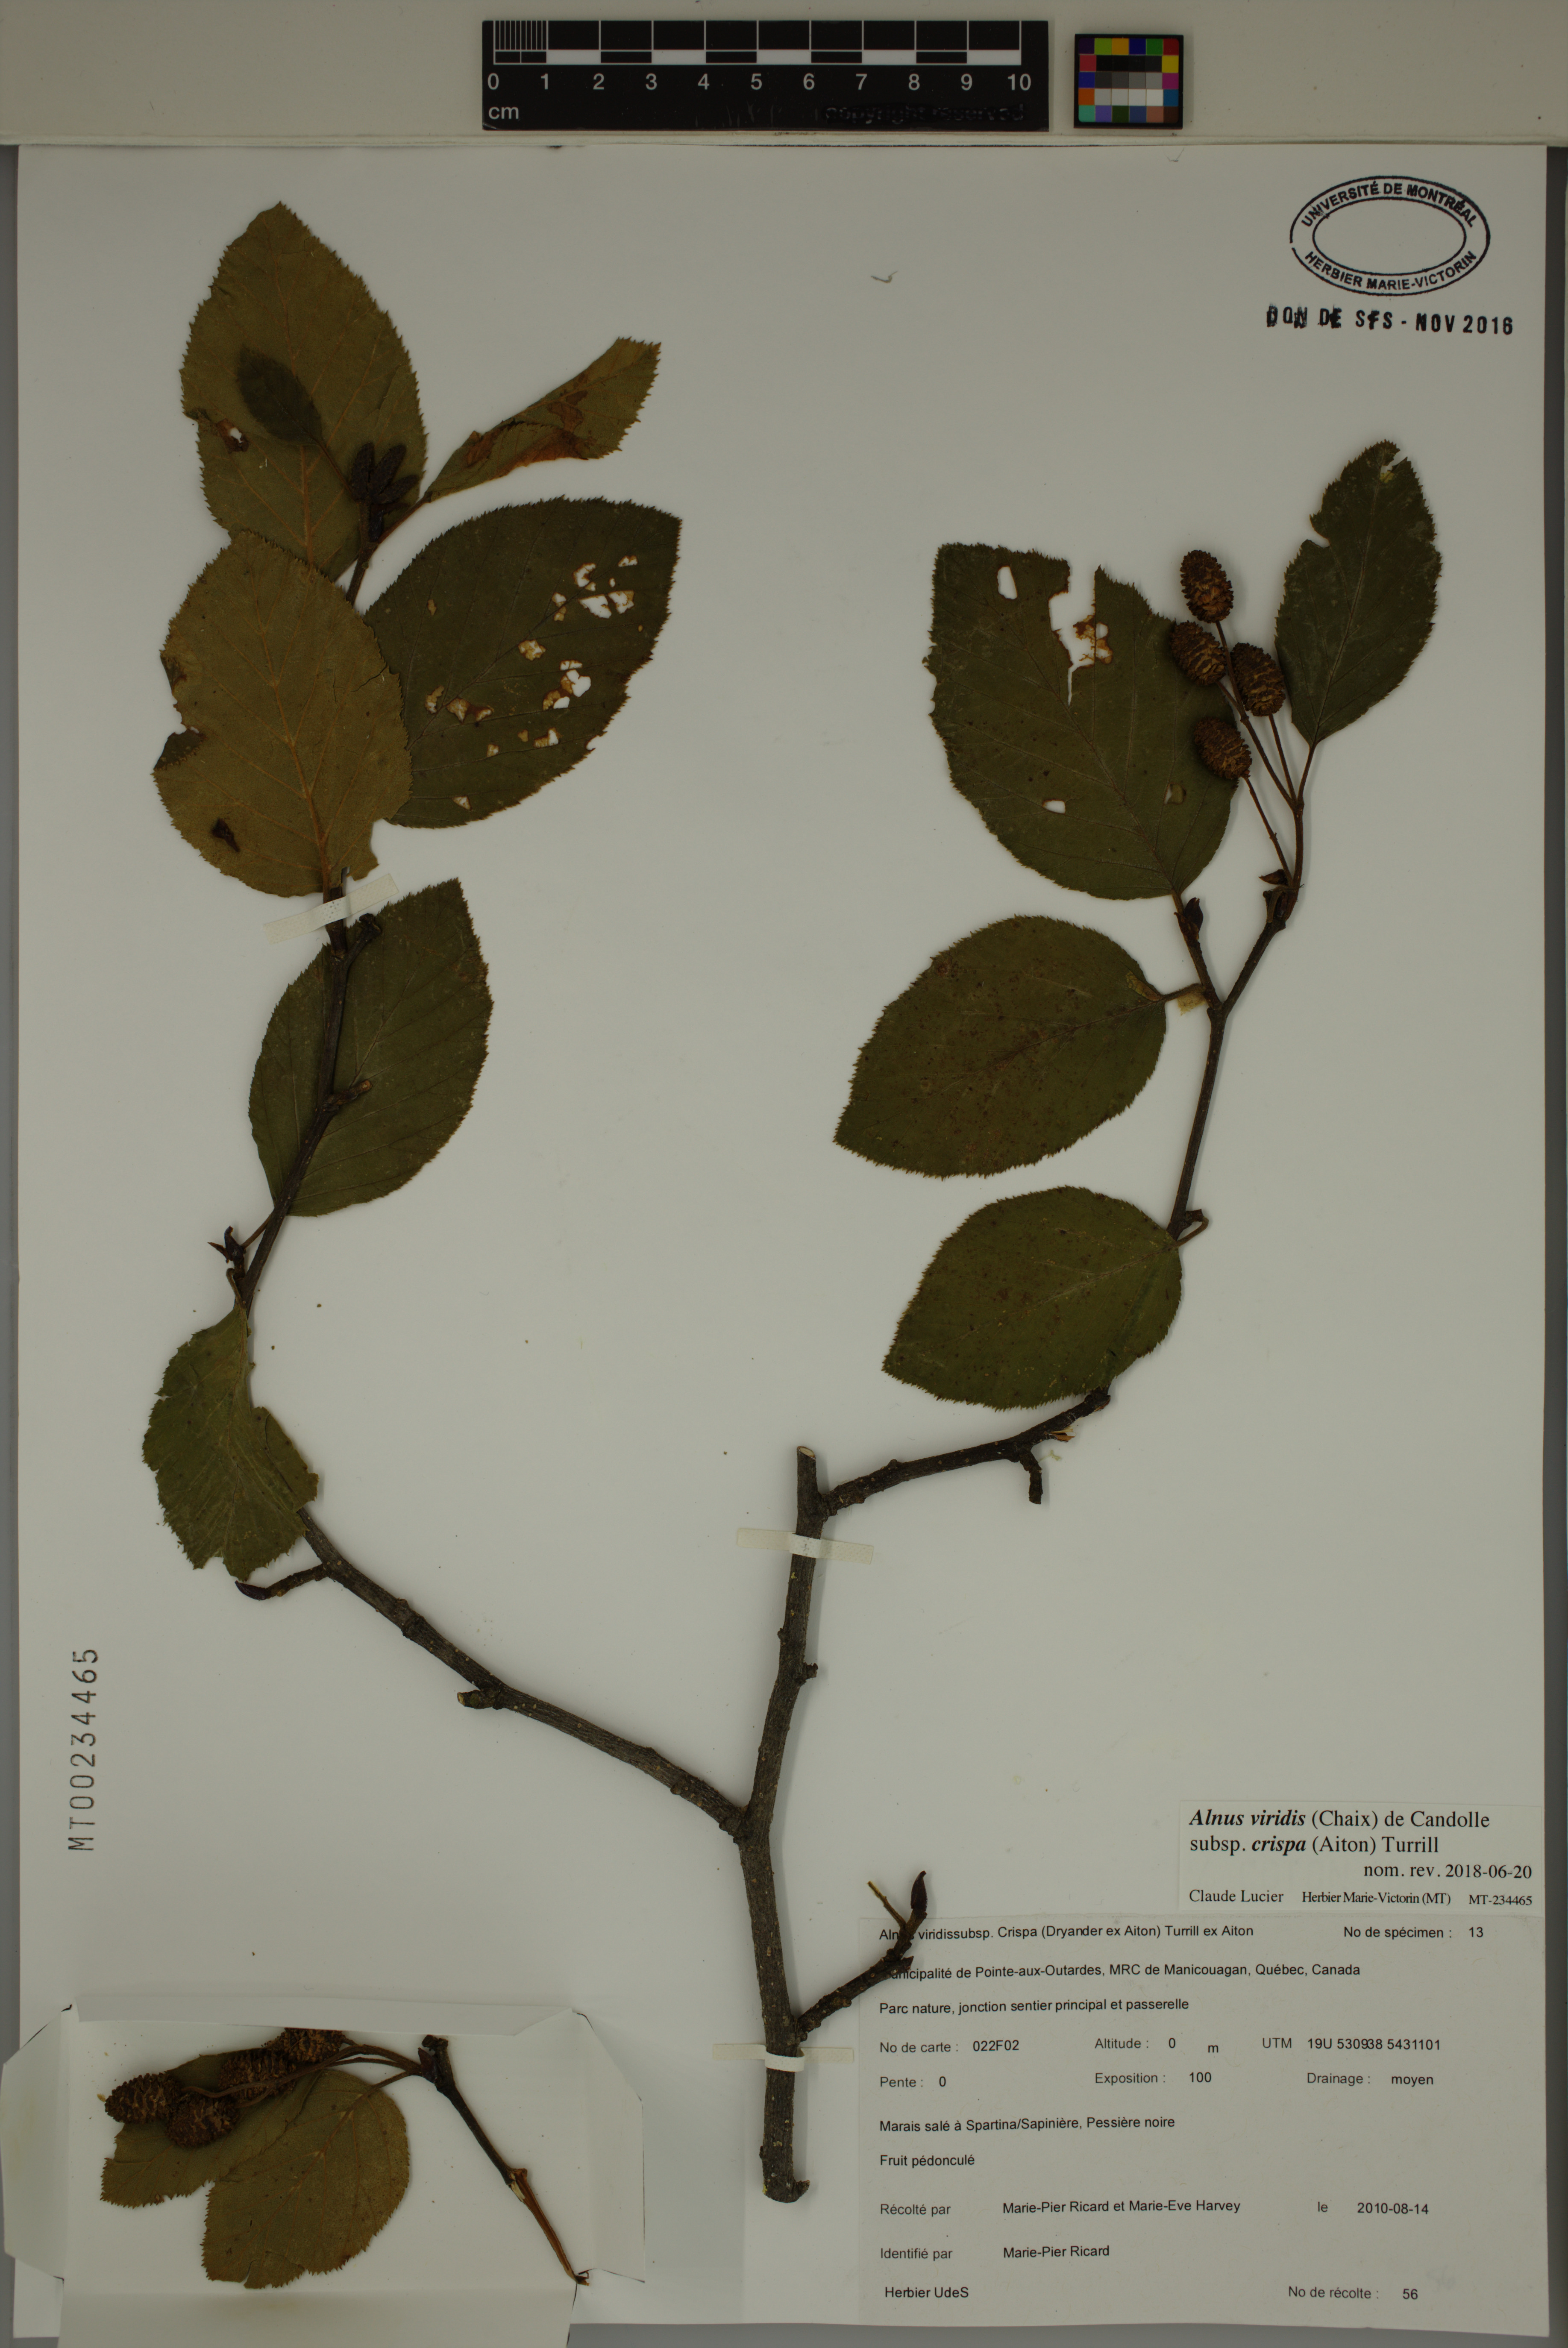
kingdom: Plantae
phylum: Tracheophyta
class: Magnoliopsida
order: Fagales
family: Betulaceae
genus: Alnus
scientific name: Alnus alnobetula
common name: Green alder
